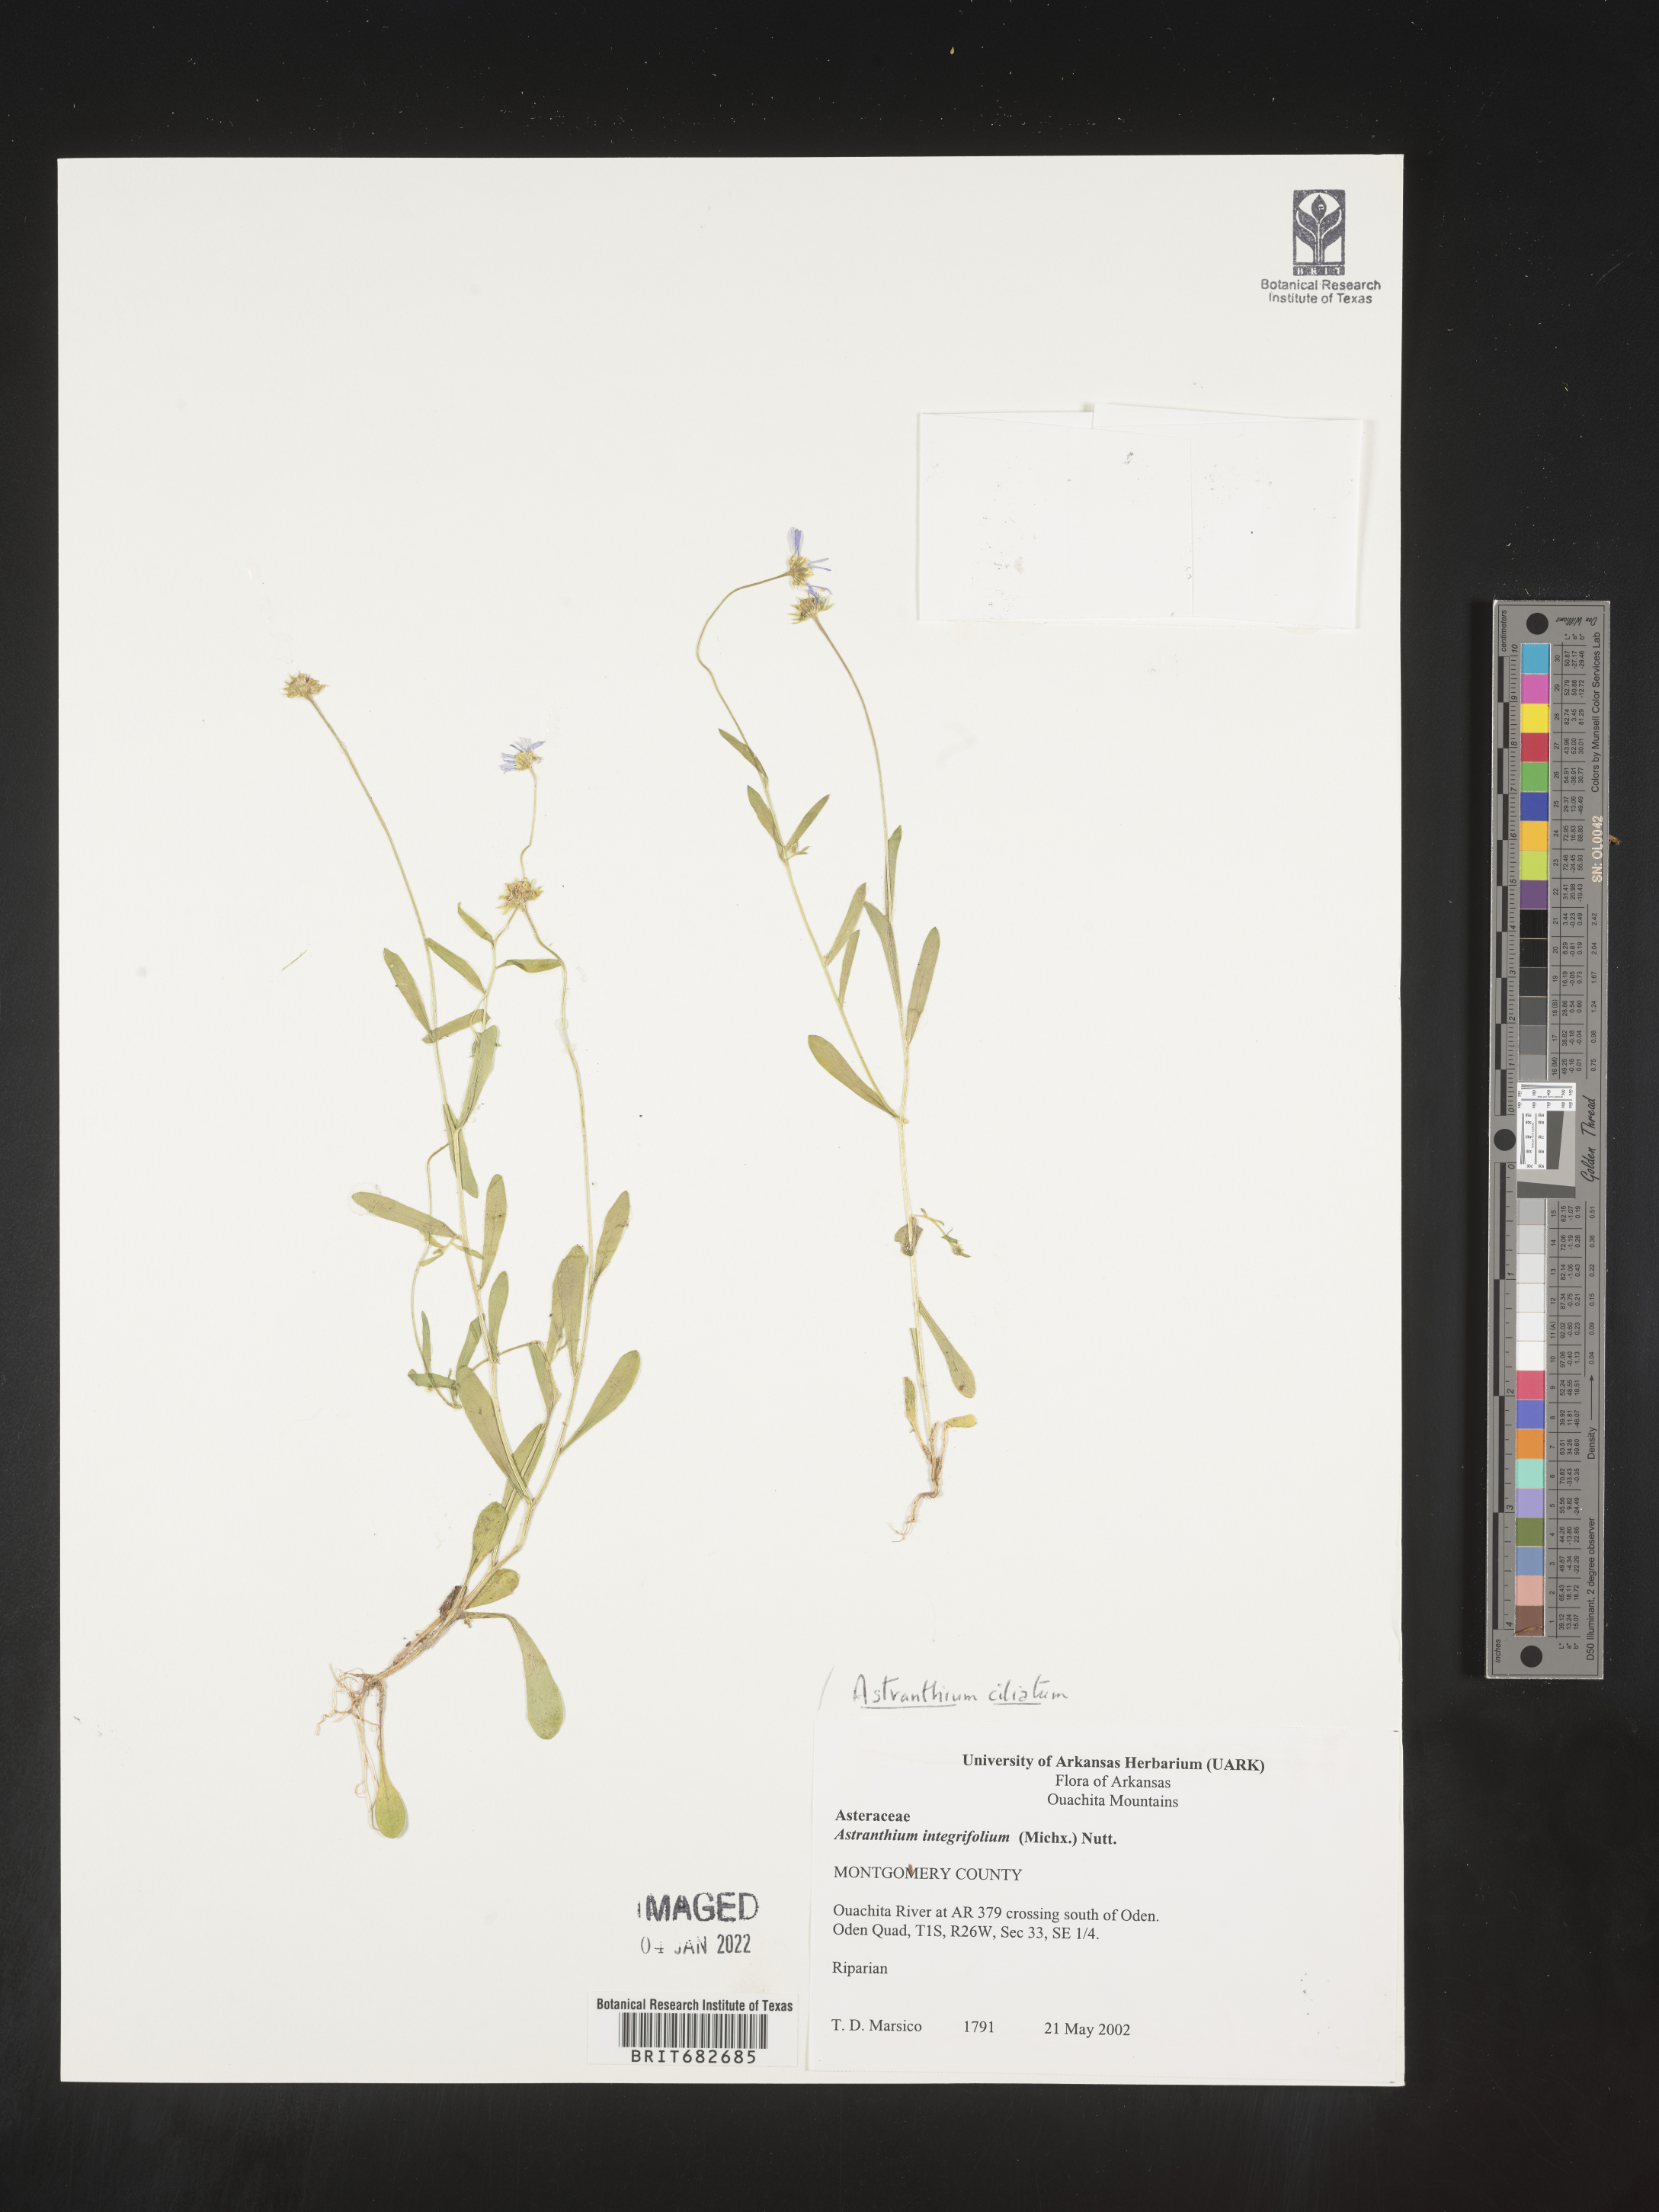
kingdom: Plantae
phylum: Tracheophyta
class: Magnoliopsida
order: Asterales
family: Asteraceae
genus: Astranthium
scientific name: Astranthium ciliatum
